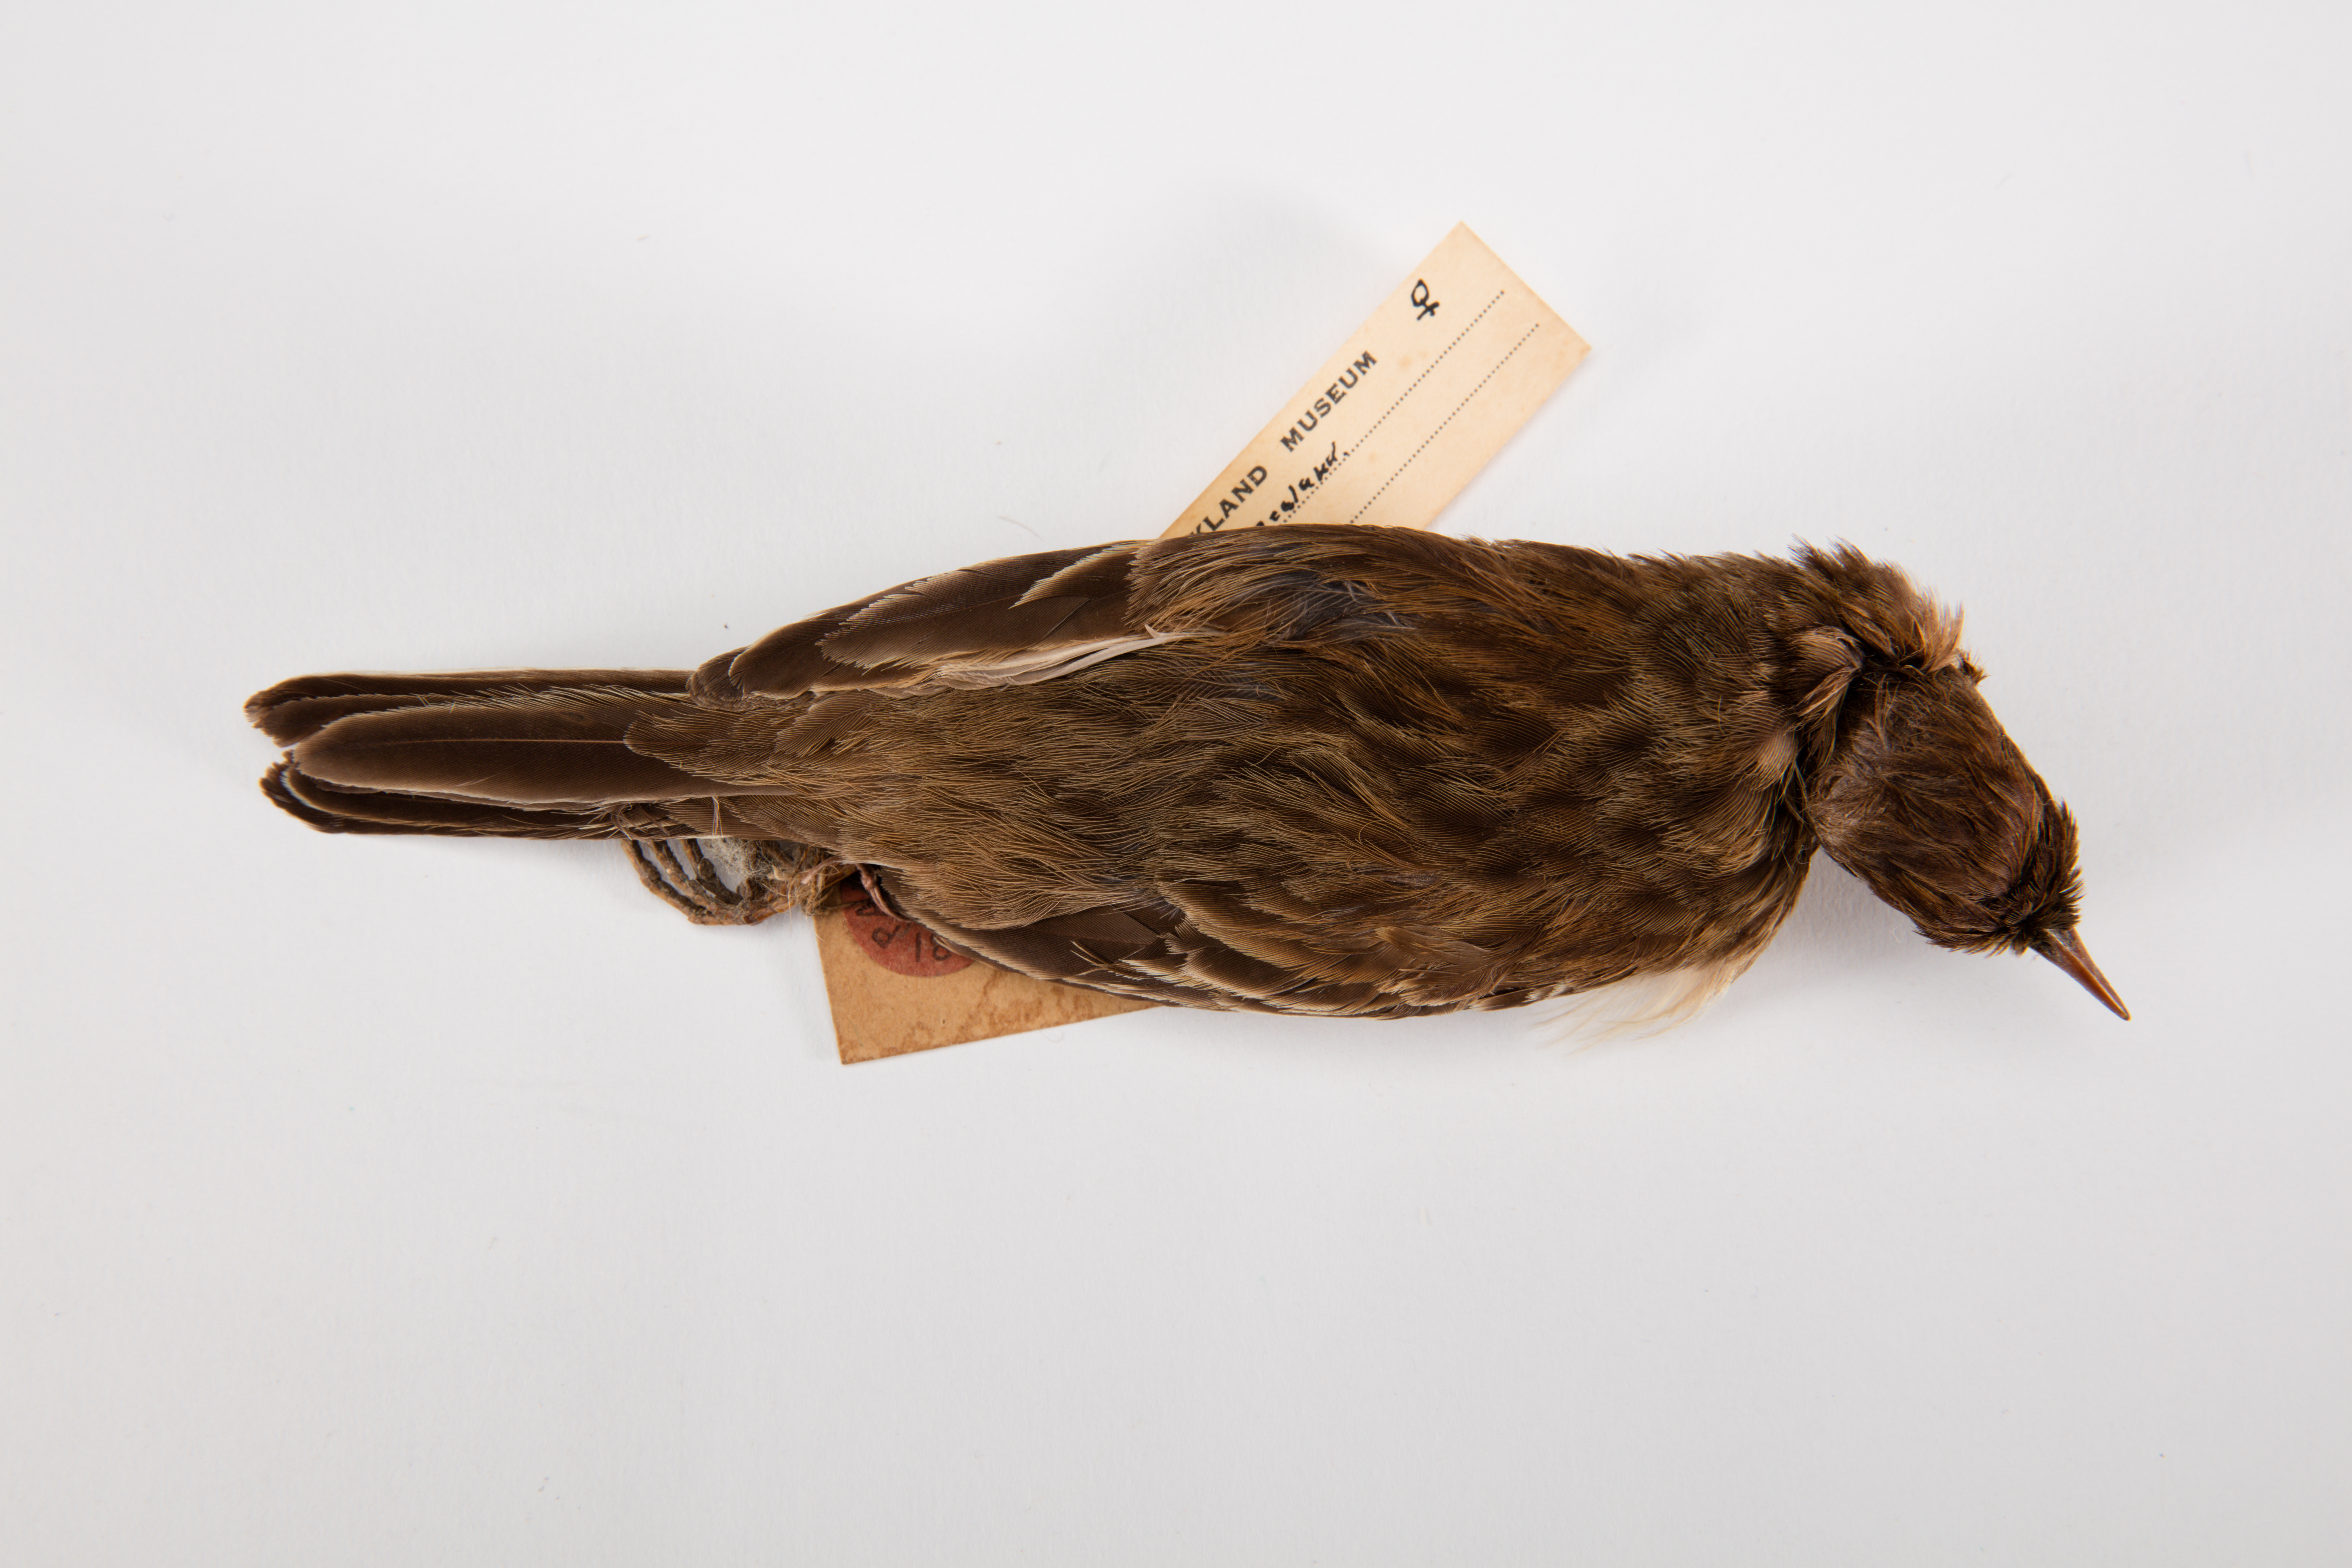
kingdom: Animalia
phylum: Chordata
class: Aves
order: Passeriformes
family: Motacillidae
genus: Anthus
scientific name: Anthus novaeseelandiae
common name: New zealand pipit
